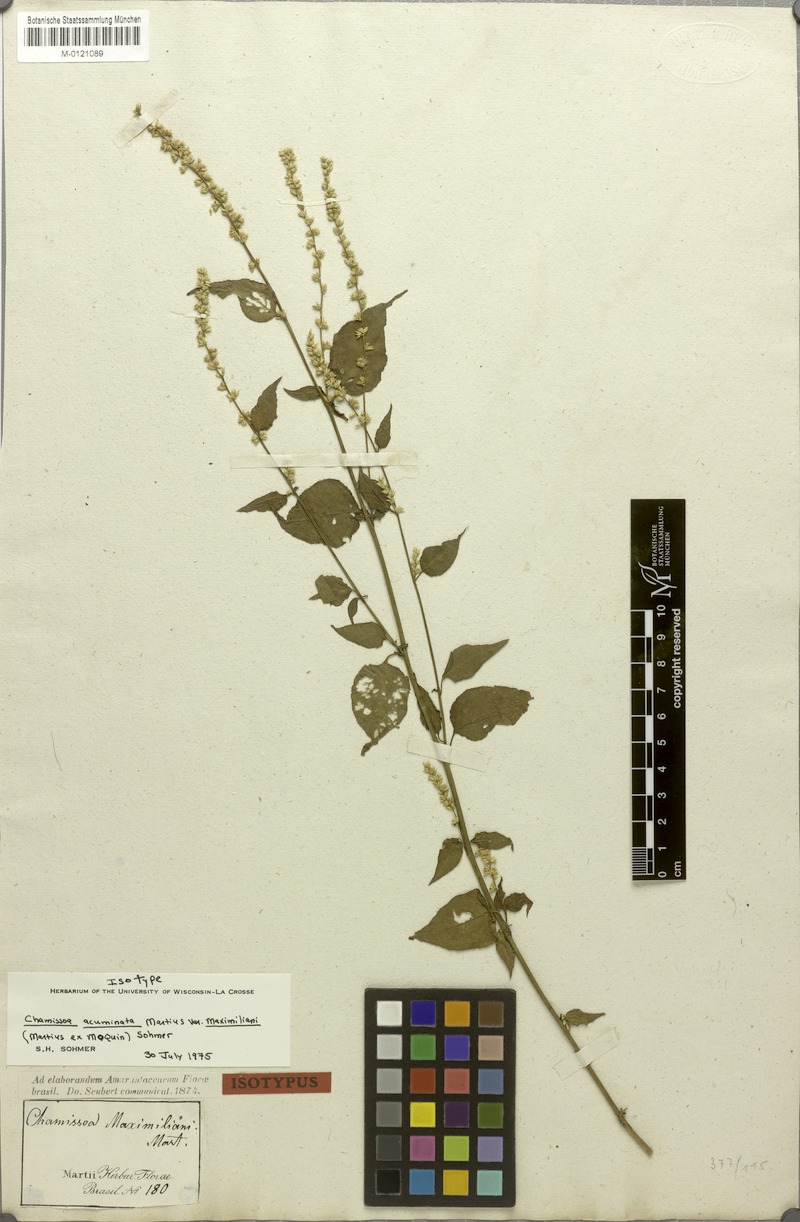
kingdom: Plantae
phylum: Tracheophyta
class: Magnoliopsida
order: Caryophyllales
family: Amaranthaceae
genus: Chamissoa
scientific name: Chamissoa maximiliani
